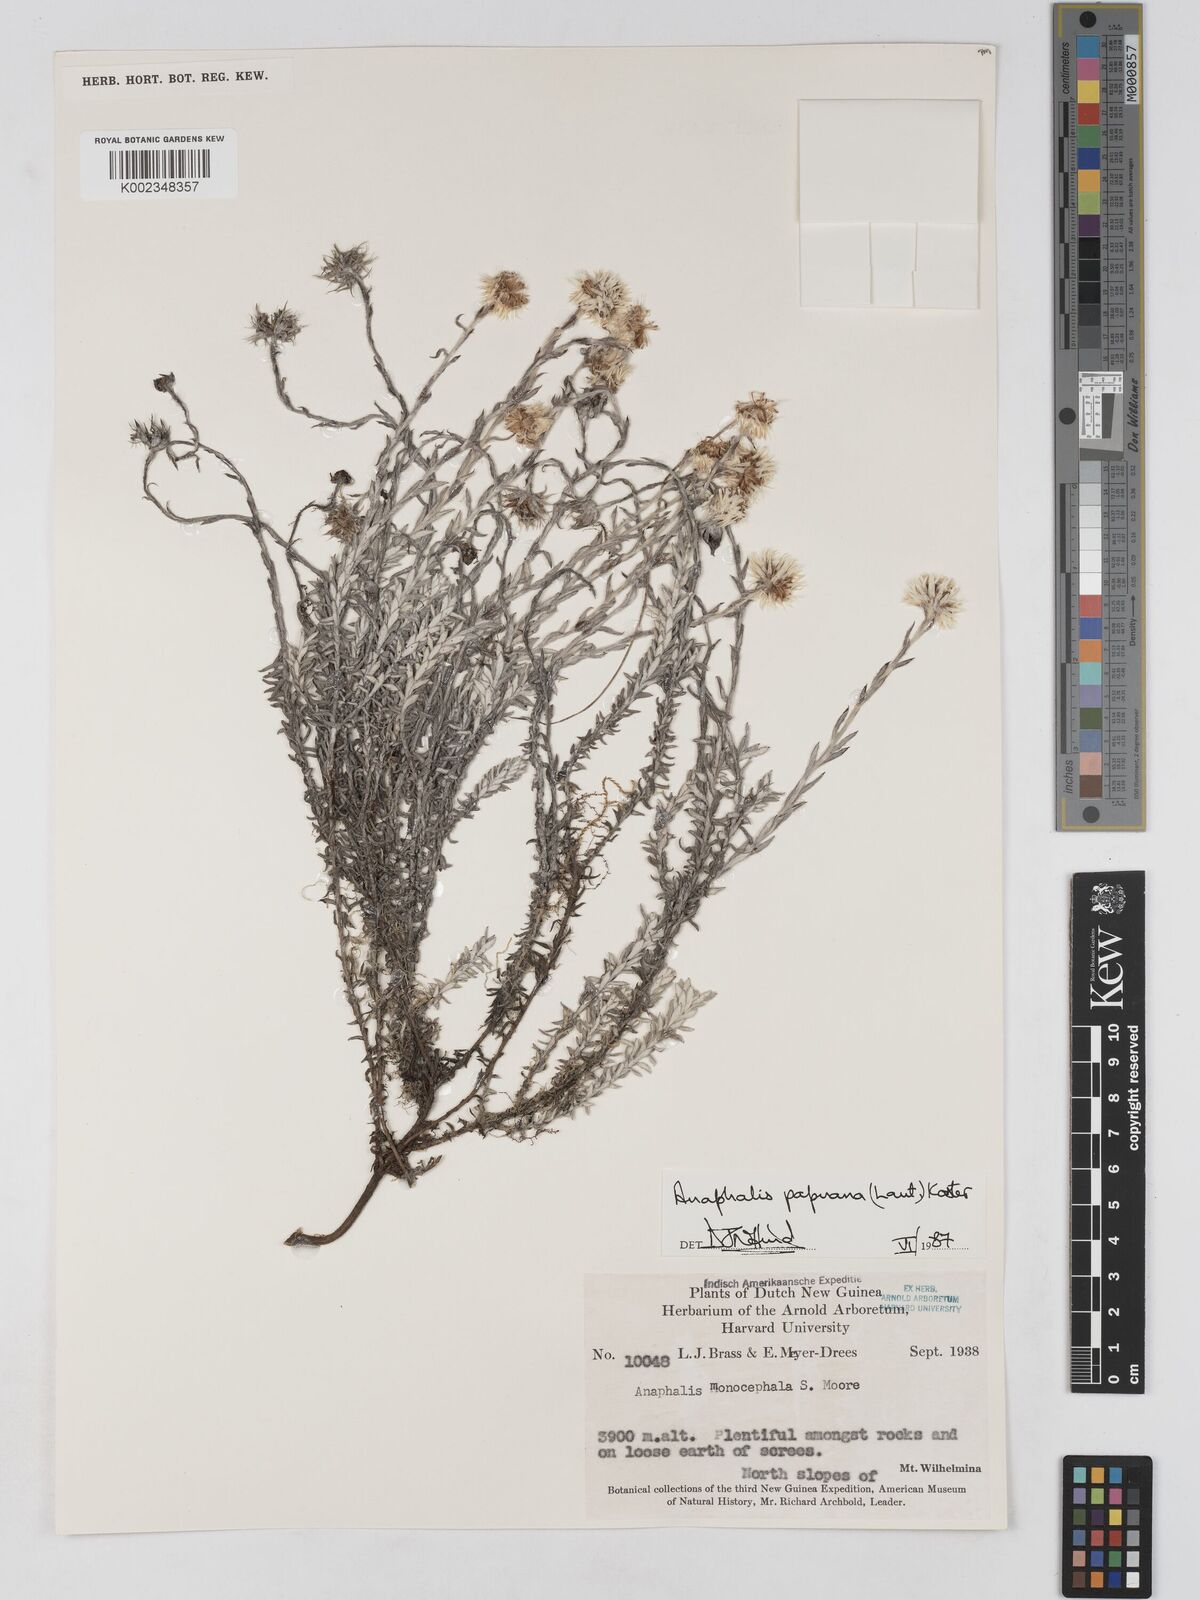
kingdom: Plantae
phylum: Tracheophyta
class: Magnoliopsida
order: Asterales
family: Asteraceae
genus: Anaphalioides
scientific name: Anaphalioides papuana
